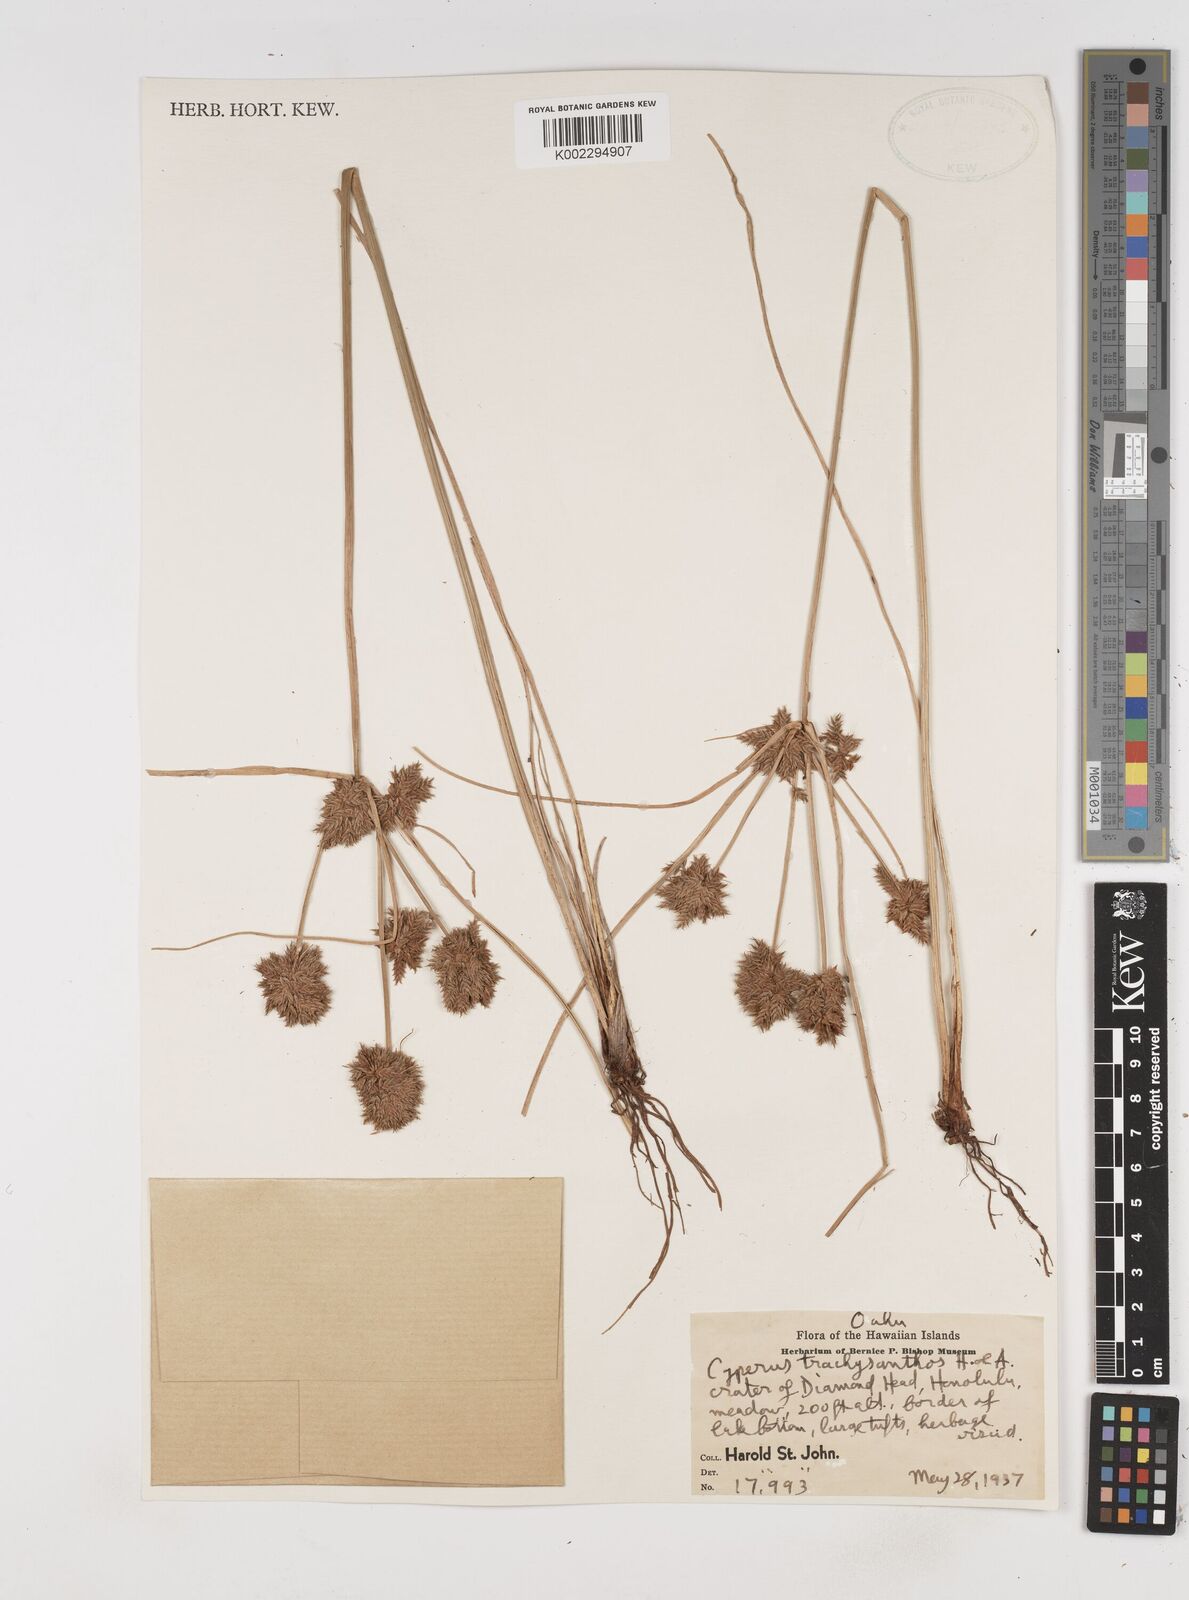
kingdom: Plantae
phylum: Tracheophyta
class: Liliopsida
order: Poales
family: Cyperaceae
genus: Cyperus
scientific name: Cyperus trachysanthos
